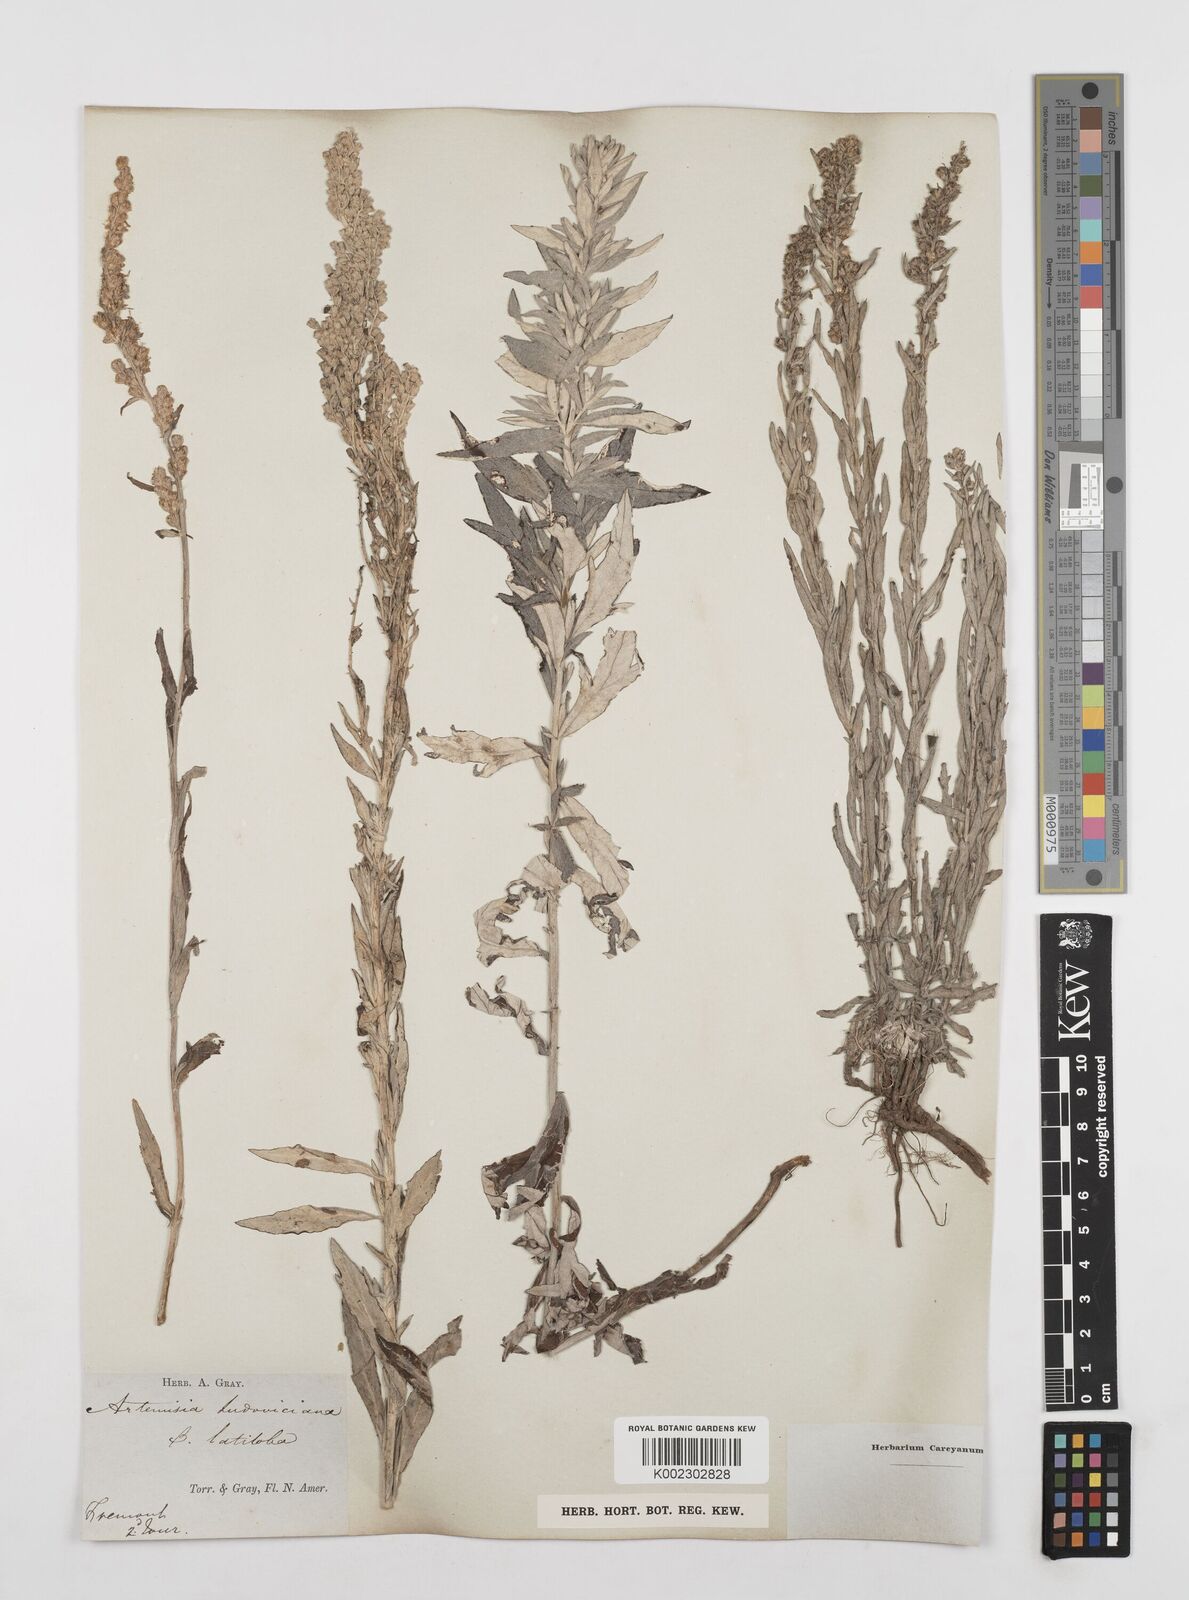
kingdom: Plantae
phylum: Tracheophyta
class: Magnoliopsida
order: Asterales
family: Asteraceae
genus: Artemisia
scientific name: Artemisia ludoviciana
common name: Western mugwort
